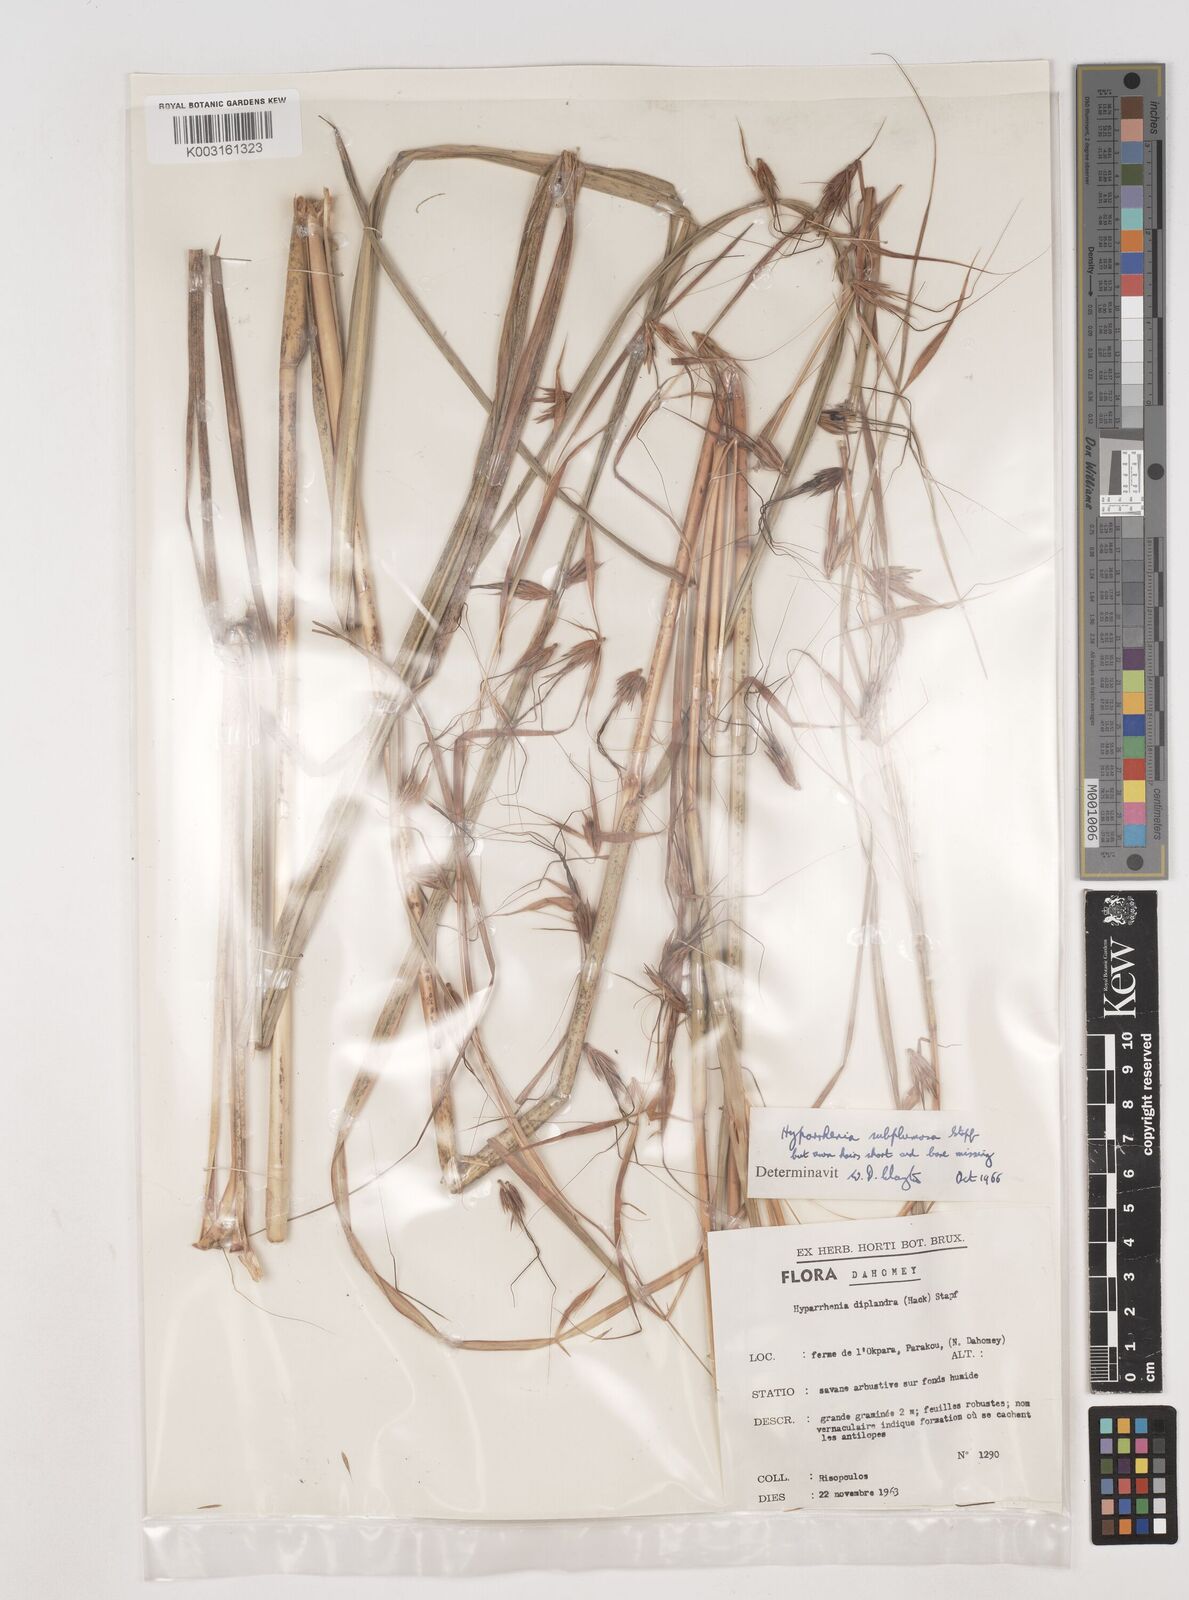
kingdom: Plantae
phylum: Tracheophyta
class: Liliopsida
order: Poales
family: Poaceae
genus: Hyparrhenia
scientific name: Hyparrhenia subplumosa
